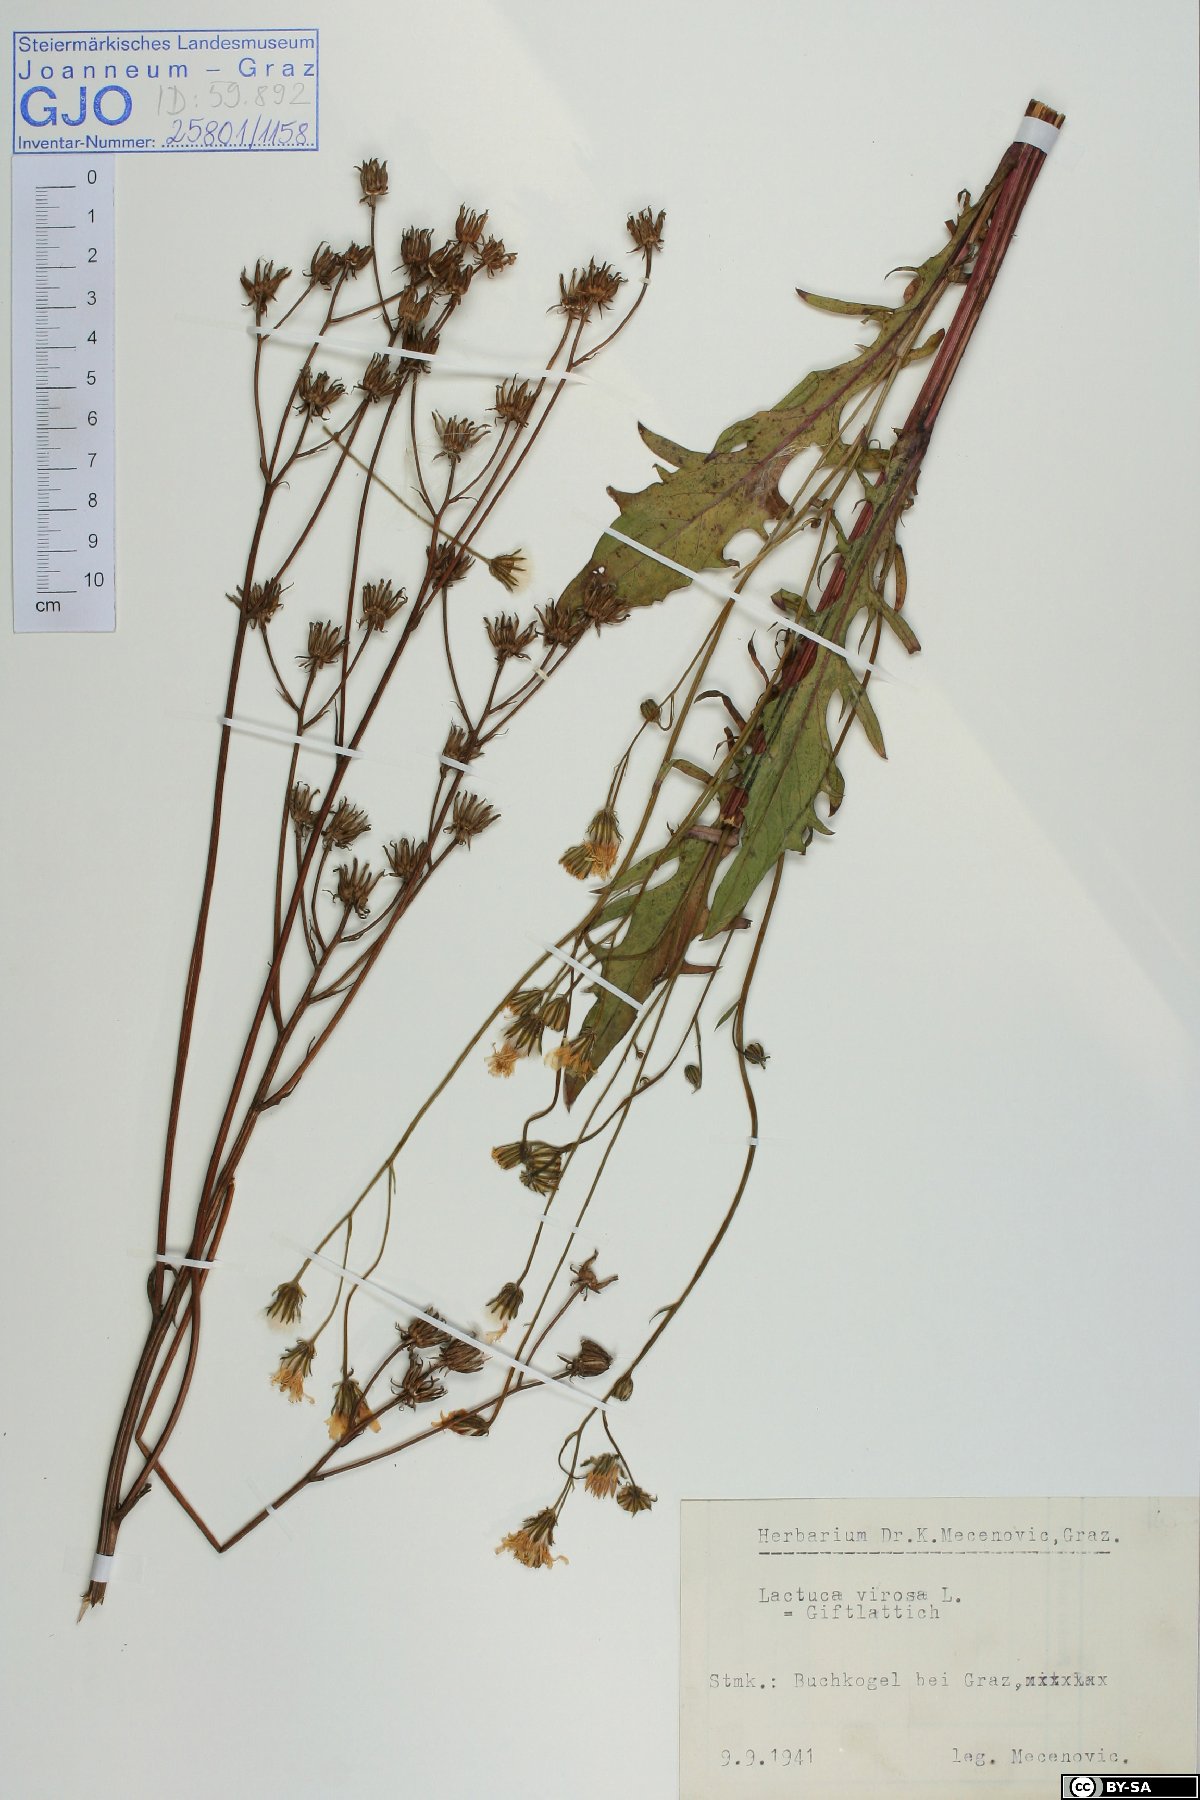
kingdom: Plantae
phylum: Tracheophyta
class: Magnoliopsida
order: Asterales
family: Asteraceae
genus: Crepis
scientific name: Crepis biennis
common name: Rough hawk's-beard
